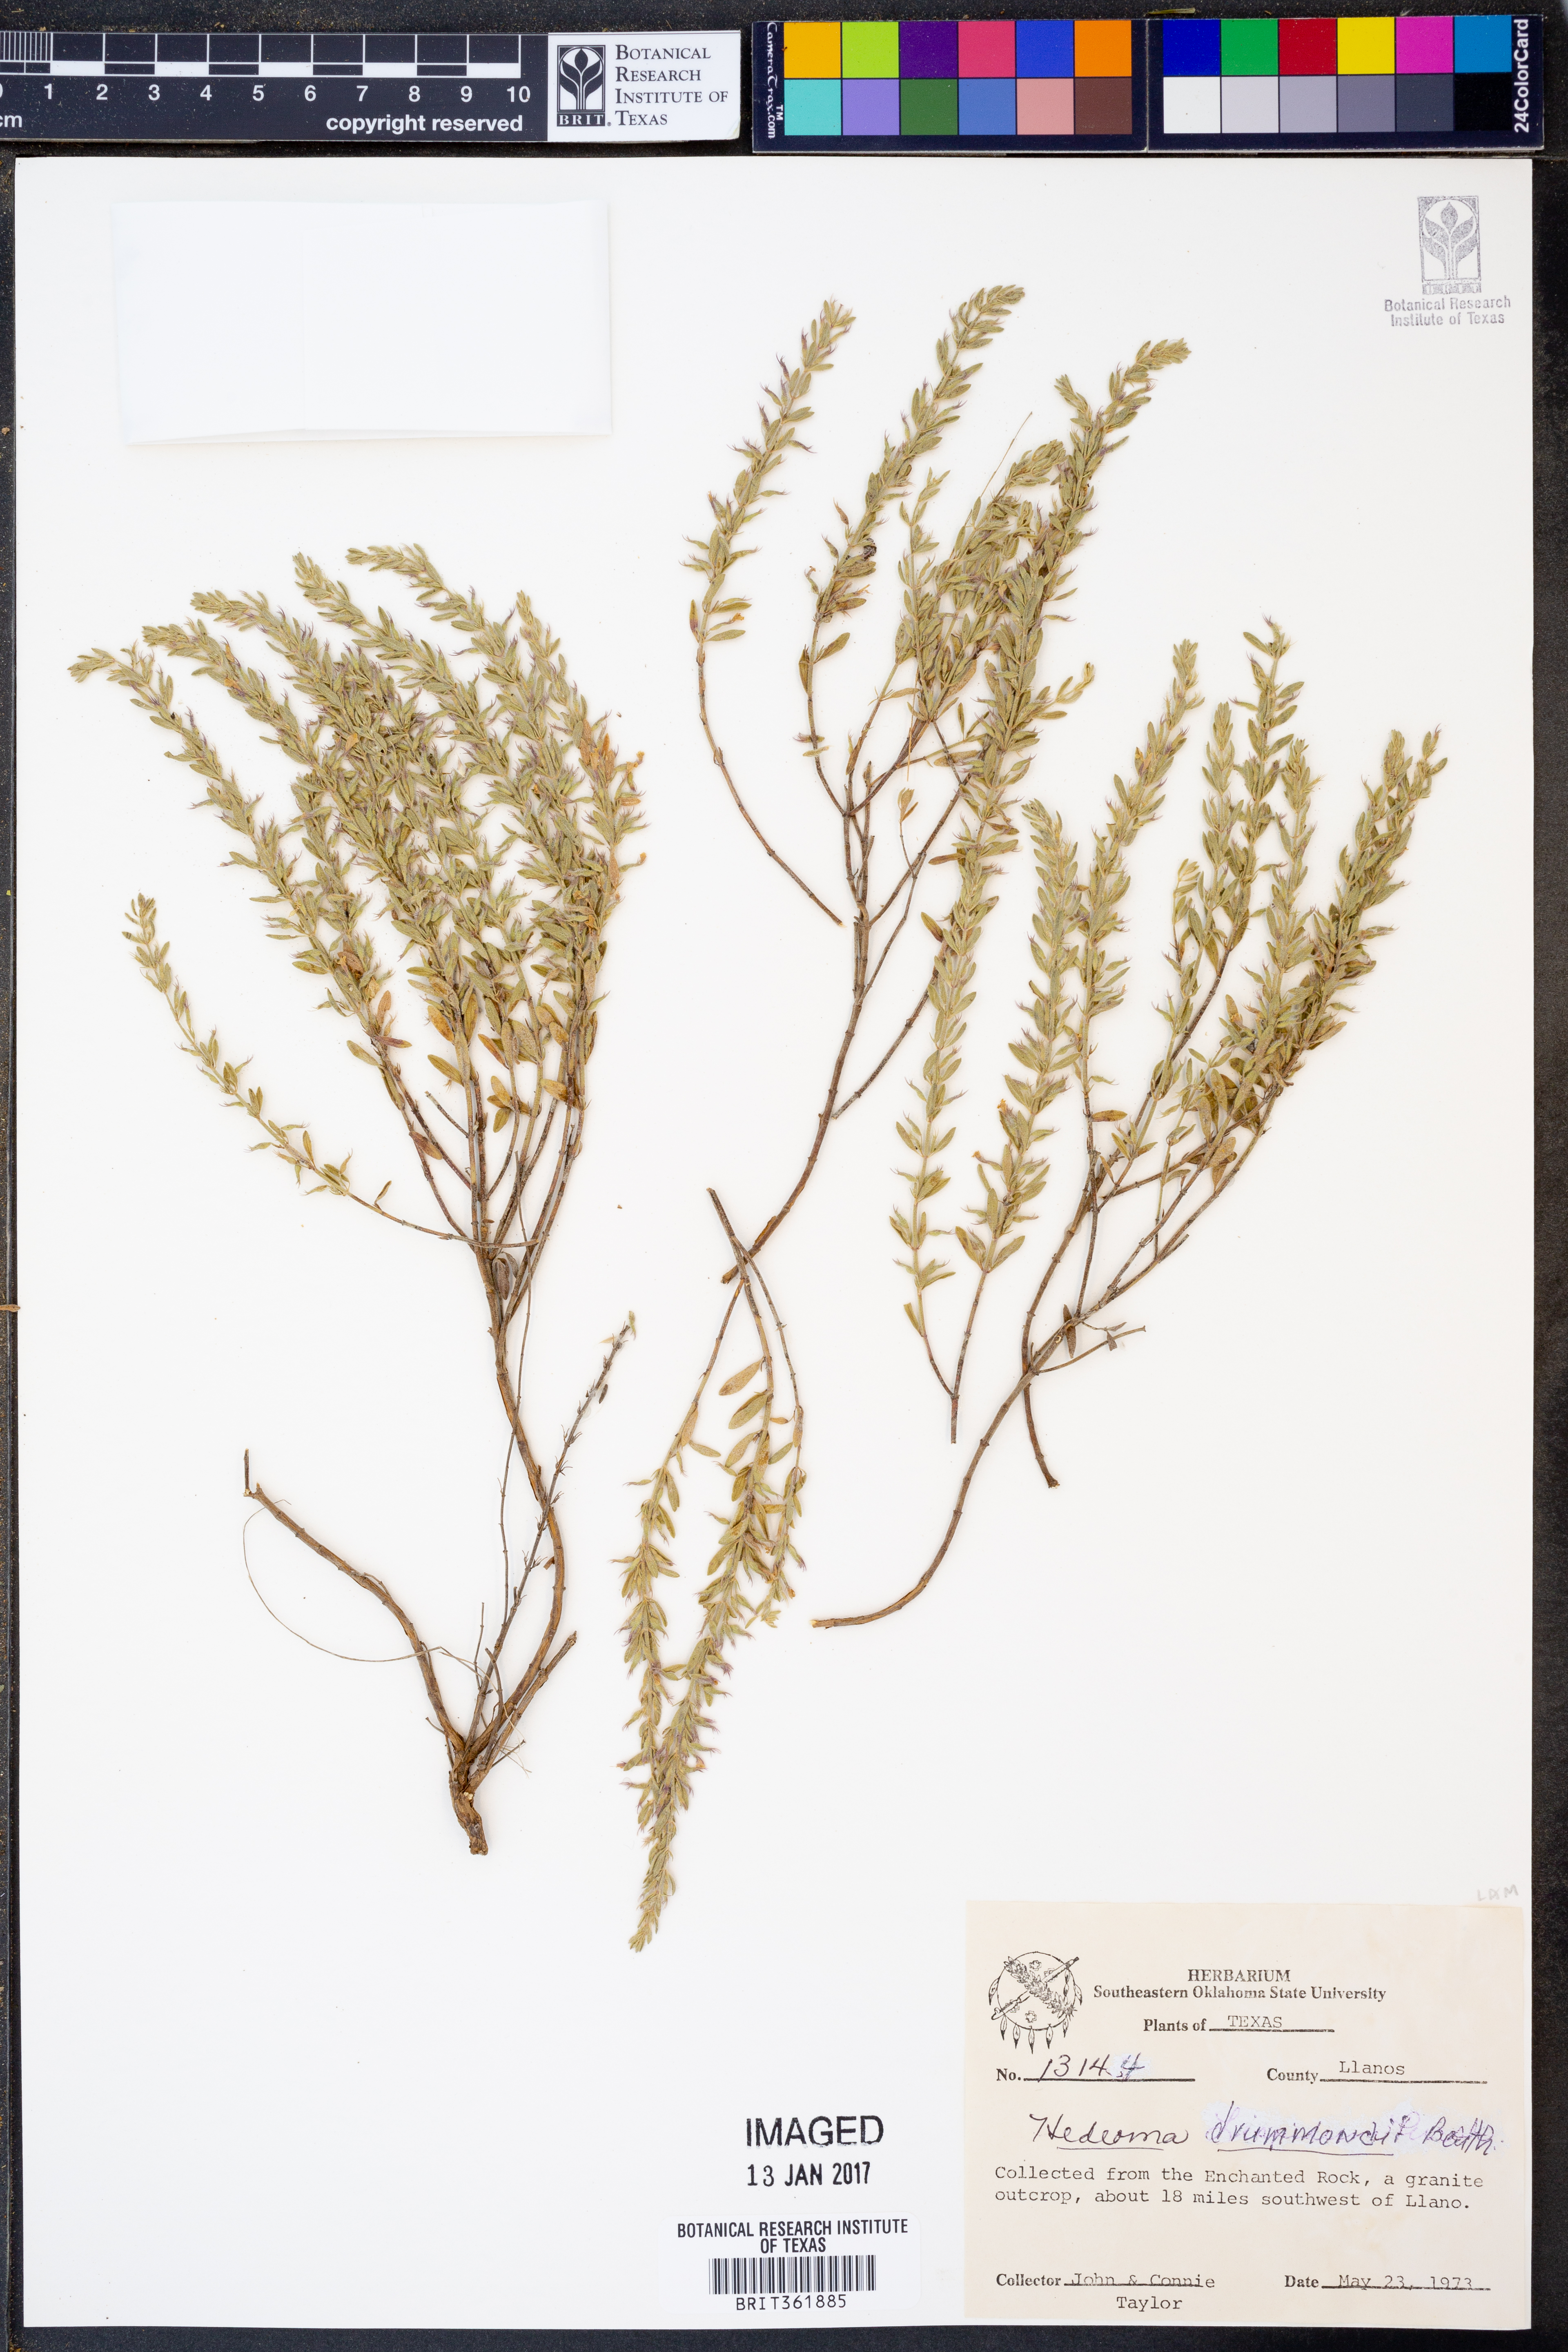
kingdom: Plantae
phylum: Tracheophyta
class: Magnoliopsida
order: Lamiales
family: Lamiaceae
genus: Hedeoma
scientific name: Hedeoma drummondii
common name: New mexico pennyroyal
